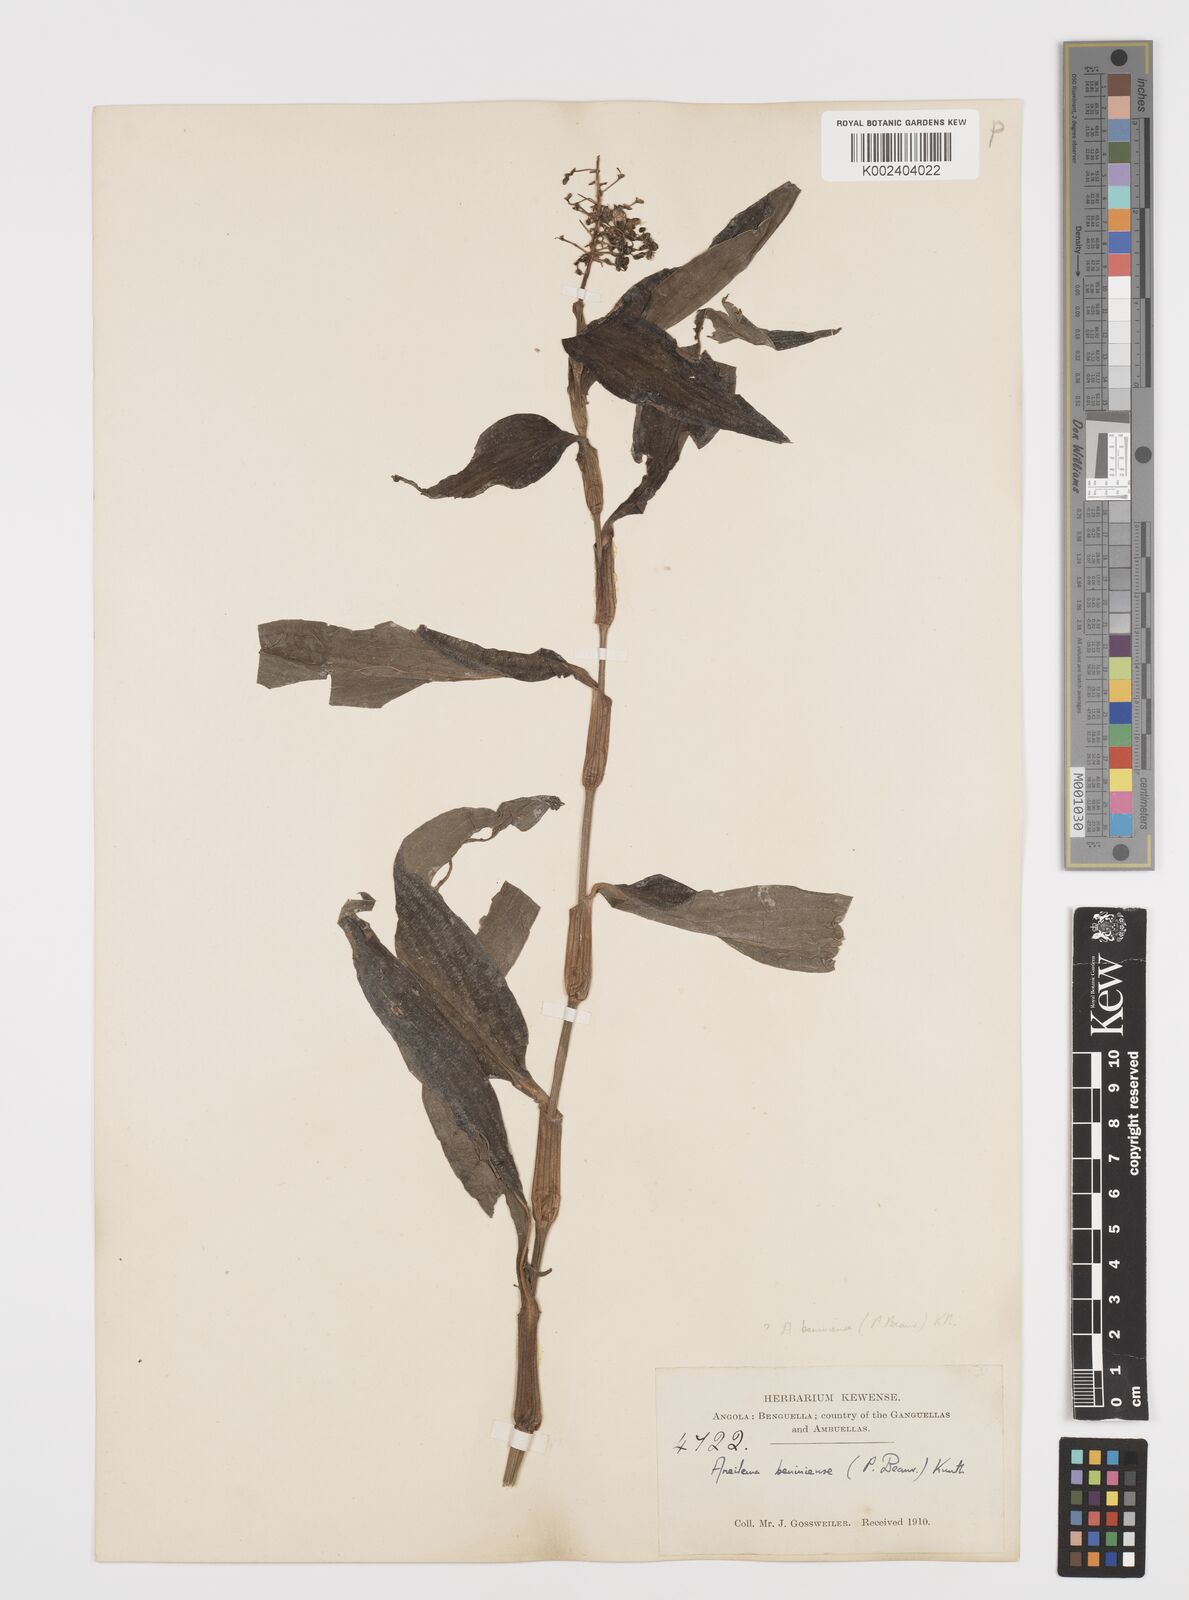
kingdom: Plantae
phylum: Tracheophyta
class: Liliopsida
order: Commelinales
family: Commelinaceae
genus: Aneilema
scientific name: Aneilema beniniense
